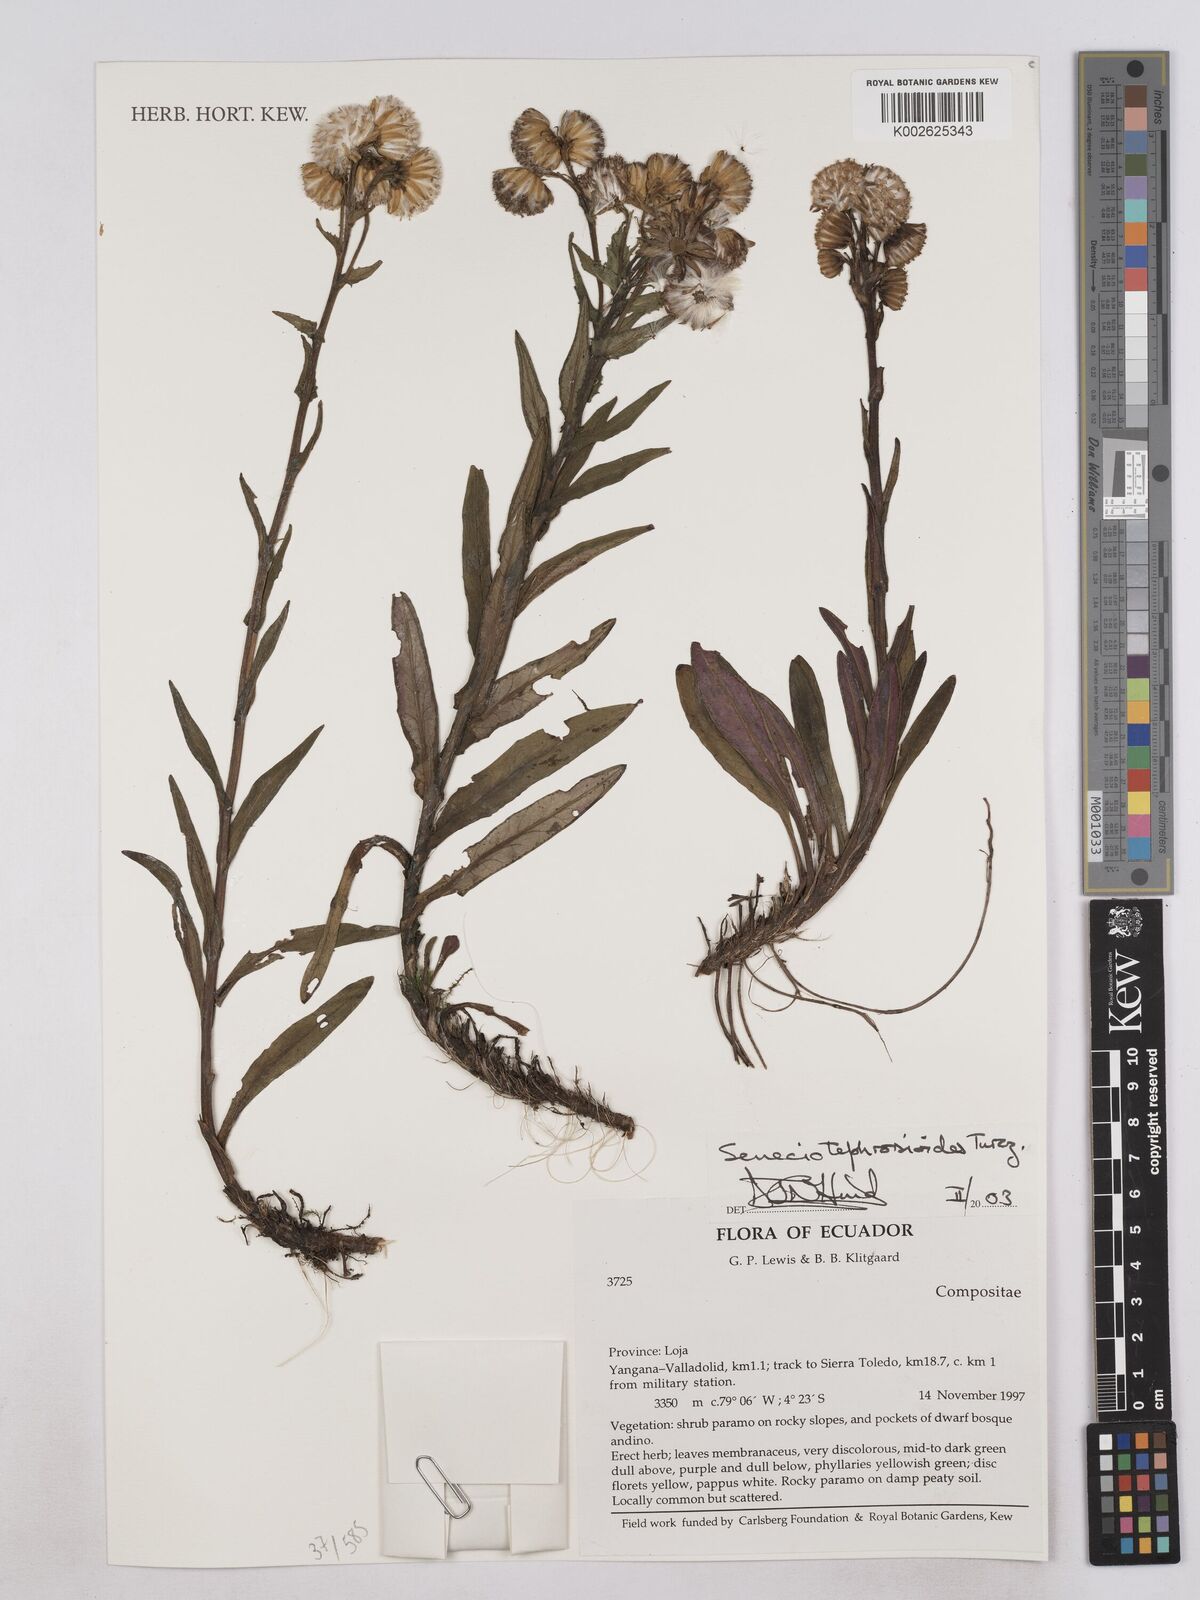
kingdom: Plantae
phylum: Tracheophyta
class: Magnoliopsida
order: Asterales
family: Asteraceae
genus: Senecio
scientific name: Senecio tephrosioides
